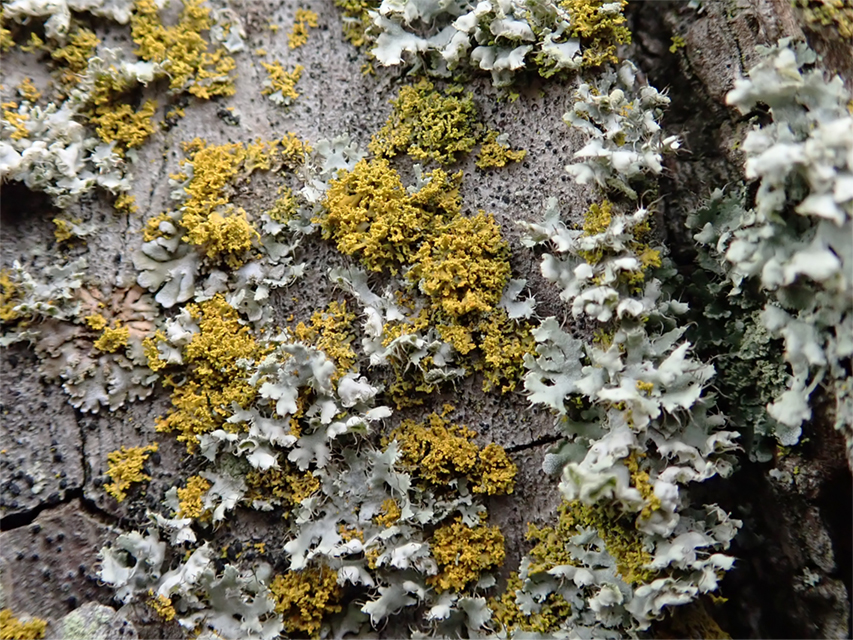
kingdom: Fungi
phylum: Ascomycota
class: Lecanoromycetes
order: Teloschistales
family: Teloschistaceae
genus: Polycauliona
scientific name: Polycauliona candelaria
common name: tue-orangelav
